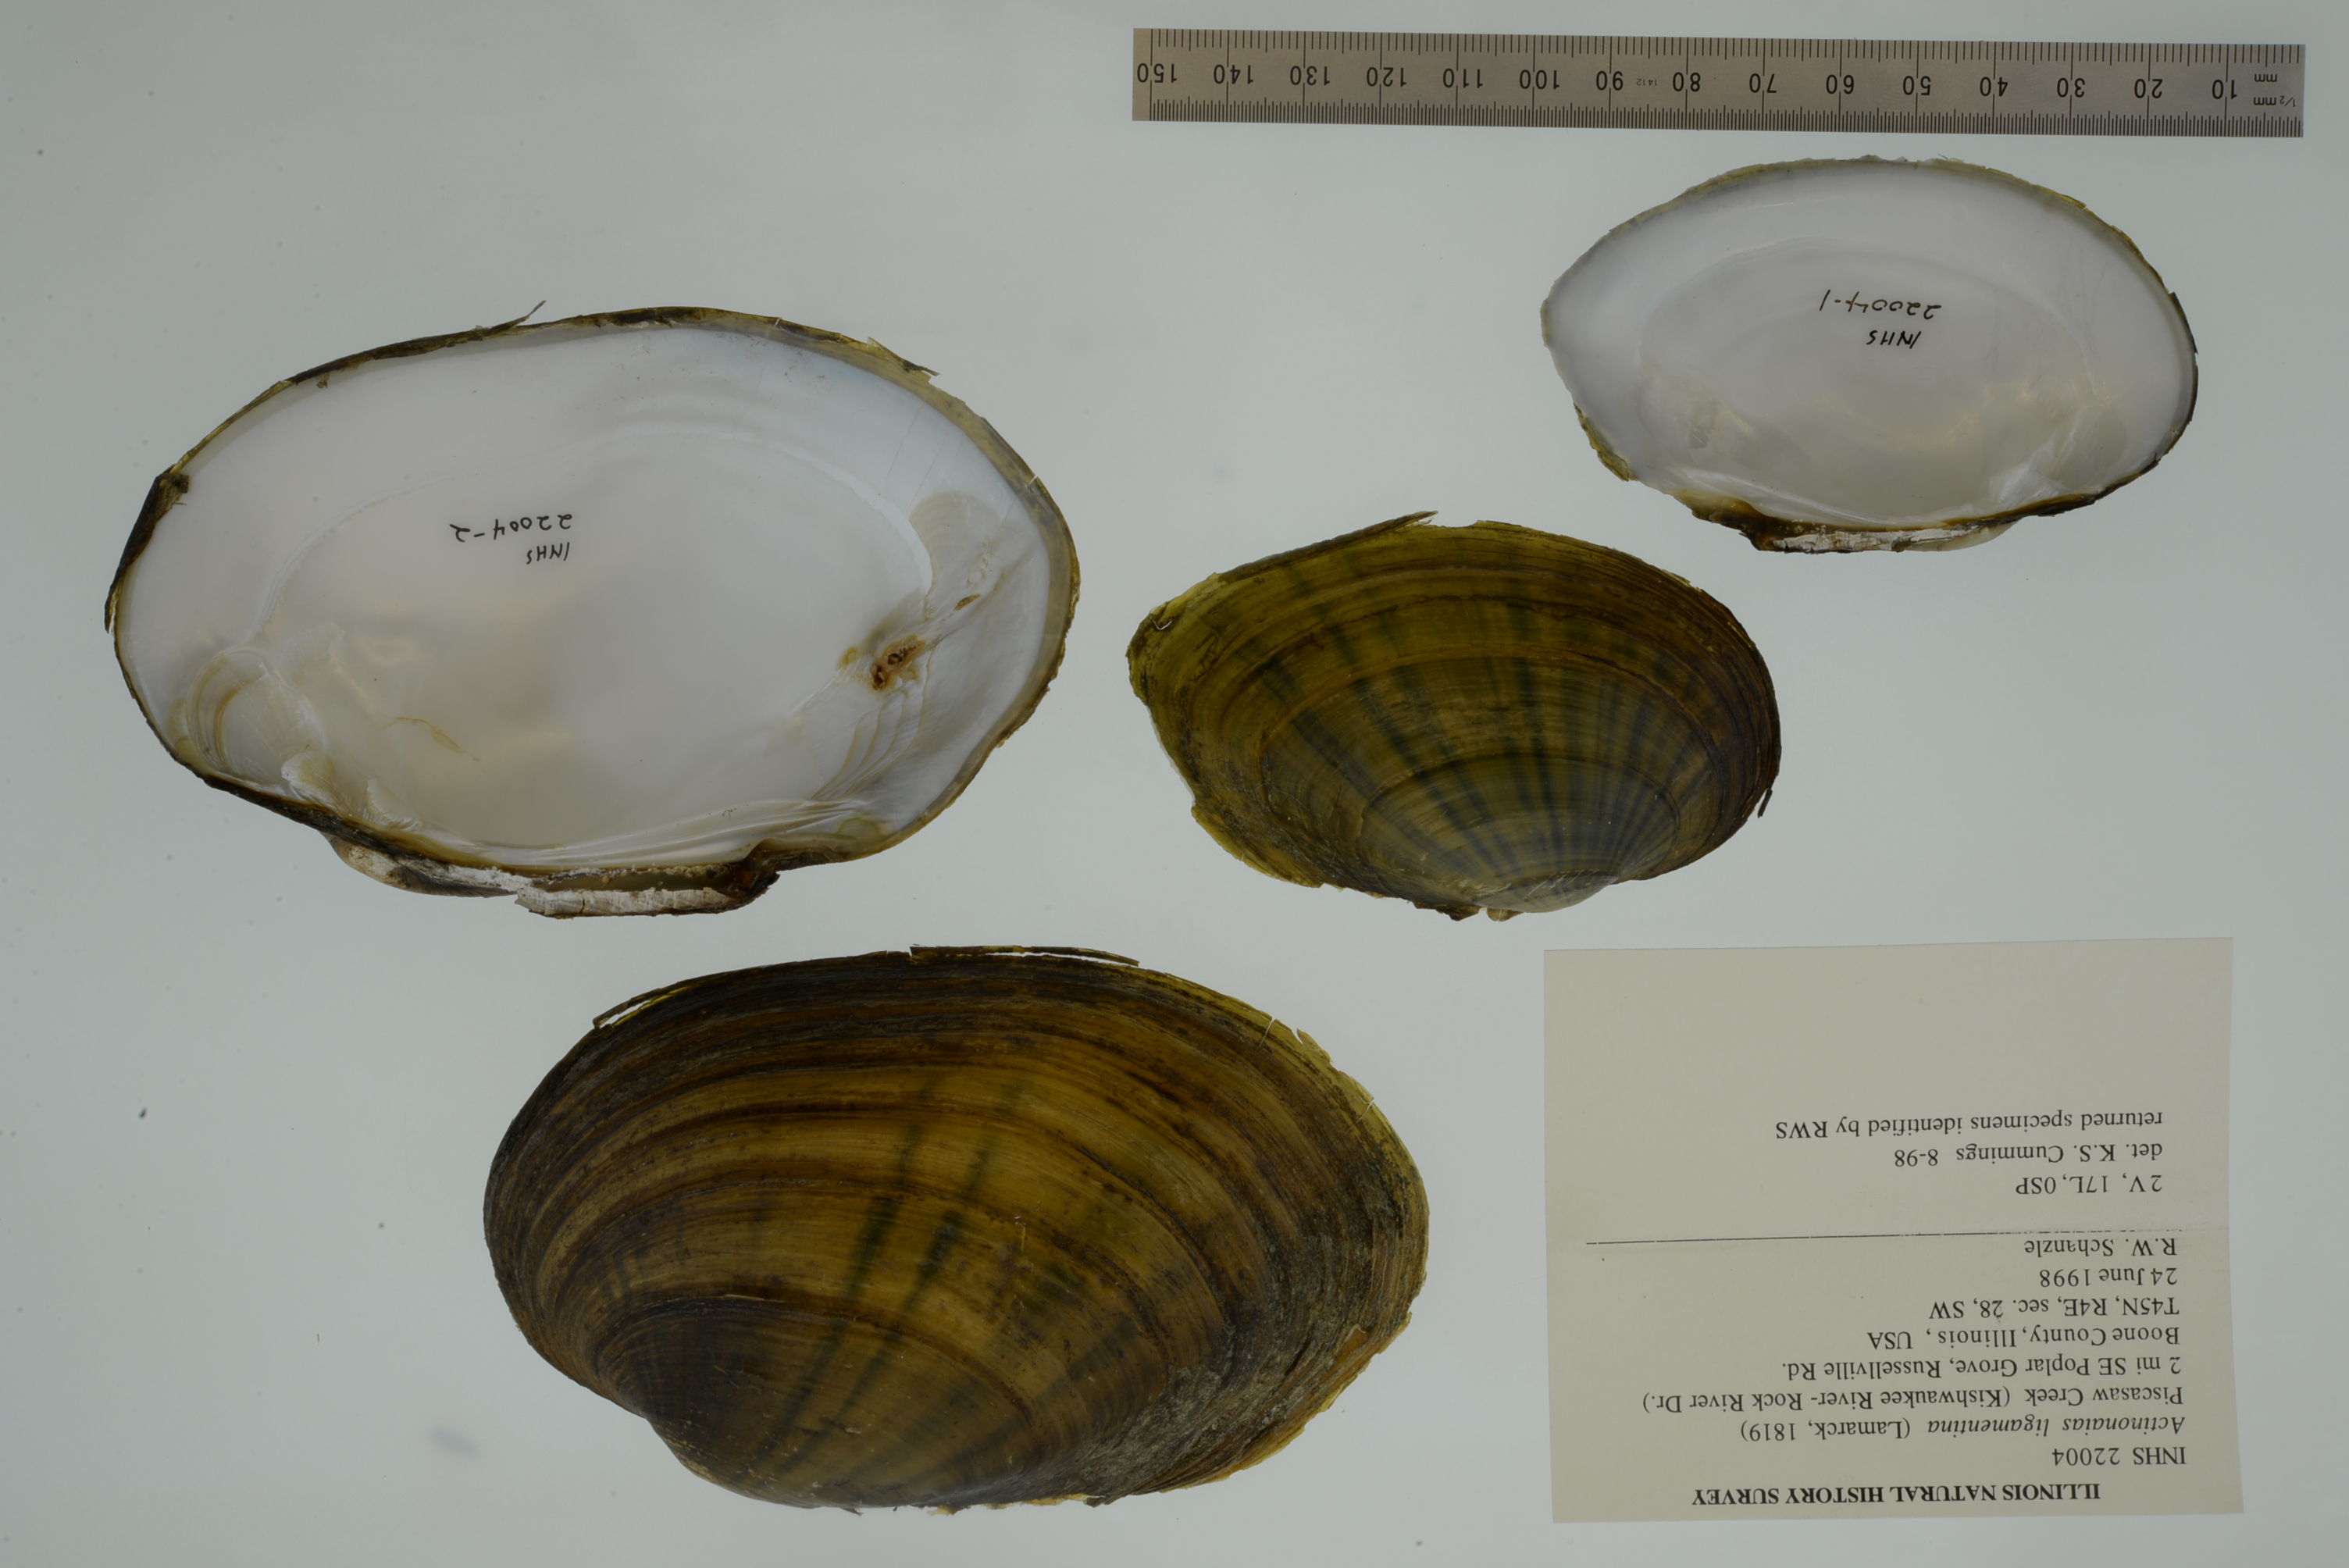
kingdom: Animalia
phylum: Mollusca
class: Bivalvia
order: Unionida
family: Unionidae
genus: Ortmanniana
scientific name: Ortmanniana ligamentina
